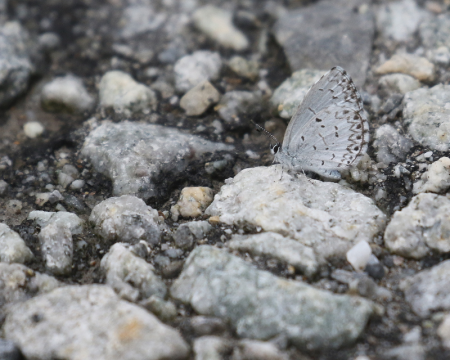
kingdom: Animalia
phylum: Arthropoda
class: Insecta
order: Lepidoptera
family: Lycaenidae
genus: Cyaniris
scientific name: Cyaniris neglecta
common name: Summer Azure
